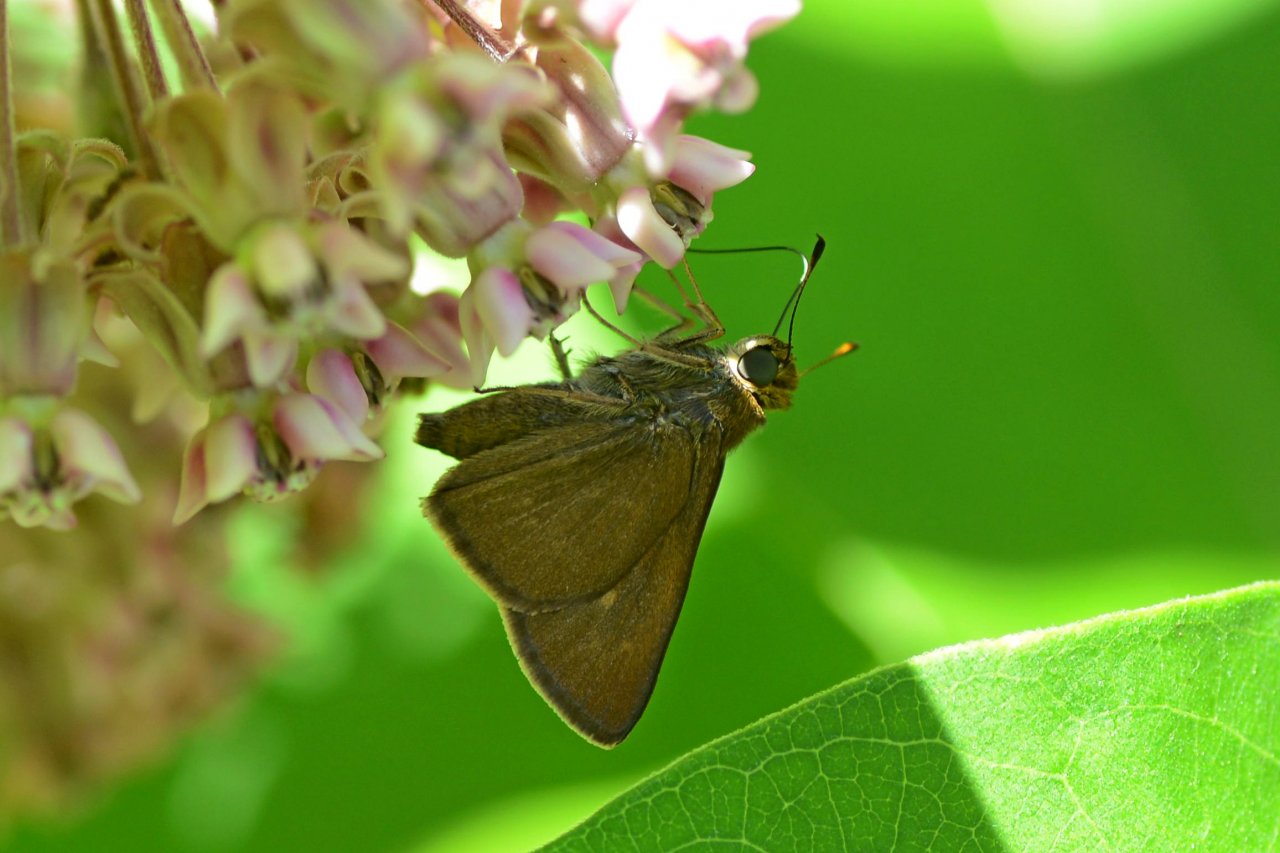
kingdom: Animalia
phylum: Arthropoda
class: Insecta
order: Lepidoptera
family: Hesperiidae
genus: Euphyes
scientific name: Euphyes vestris
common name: Dun Skipper
